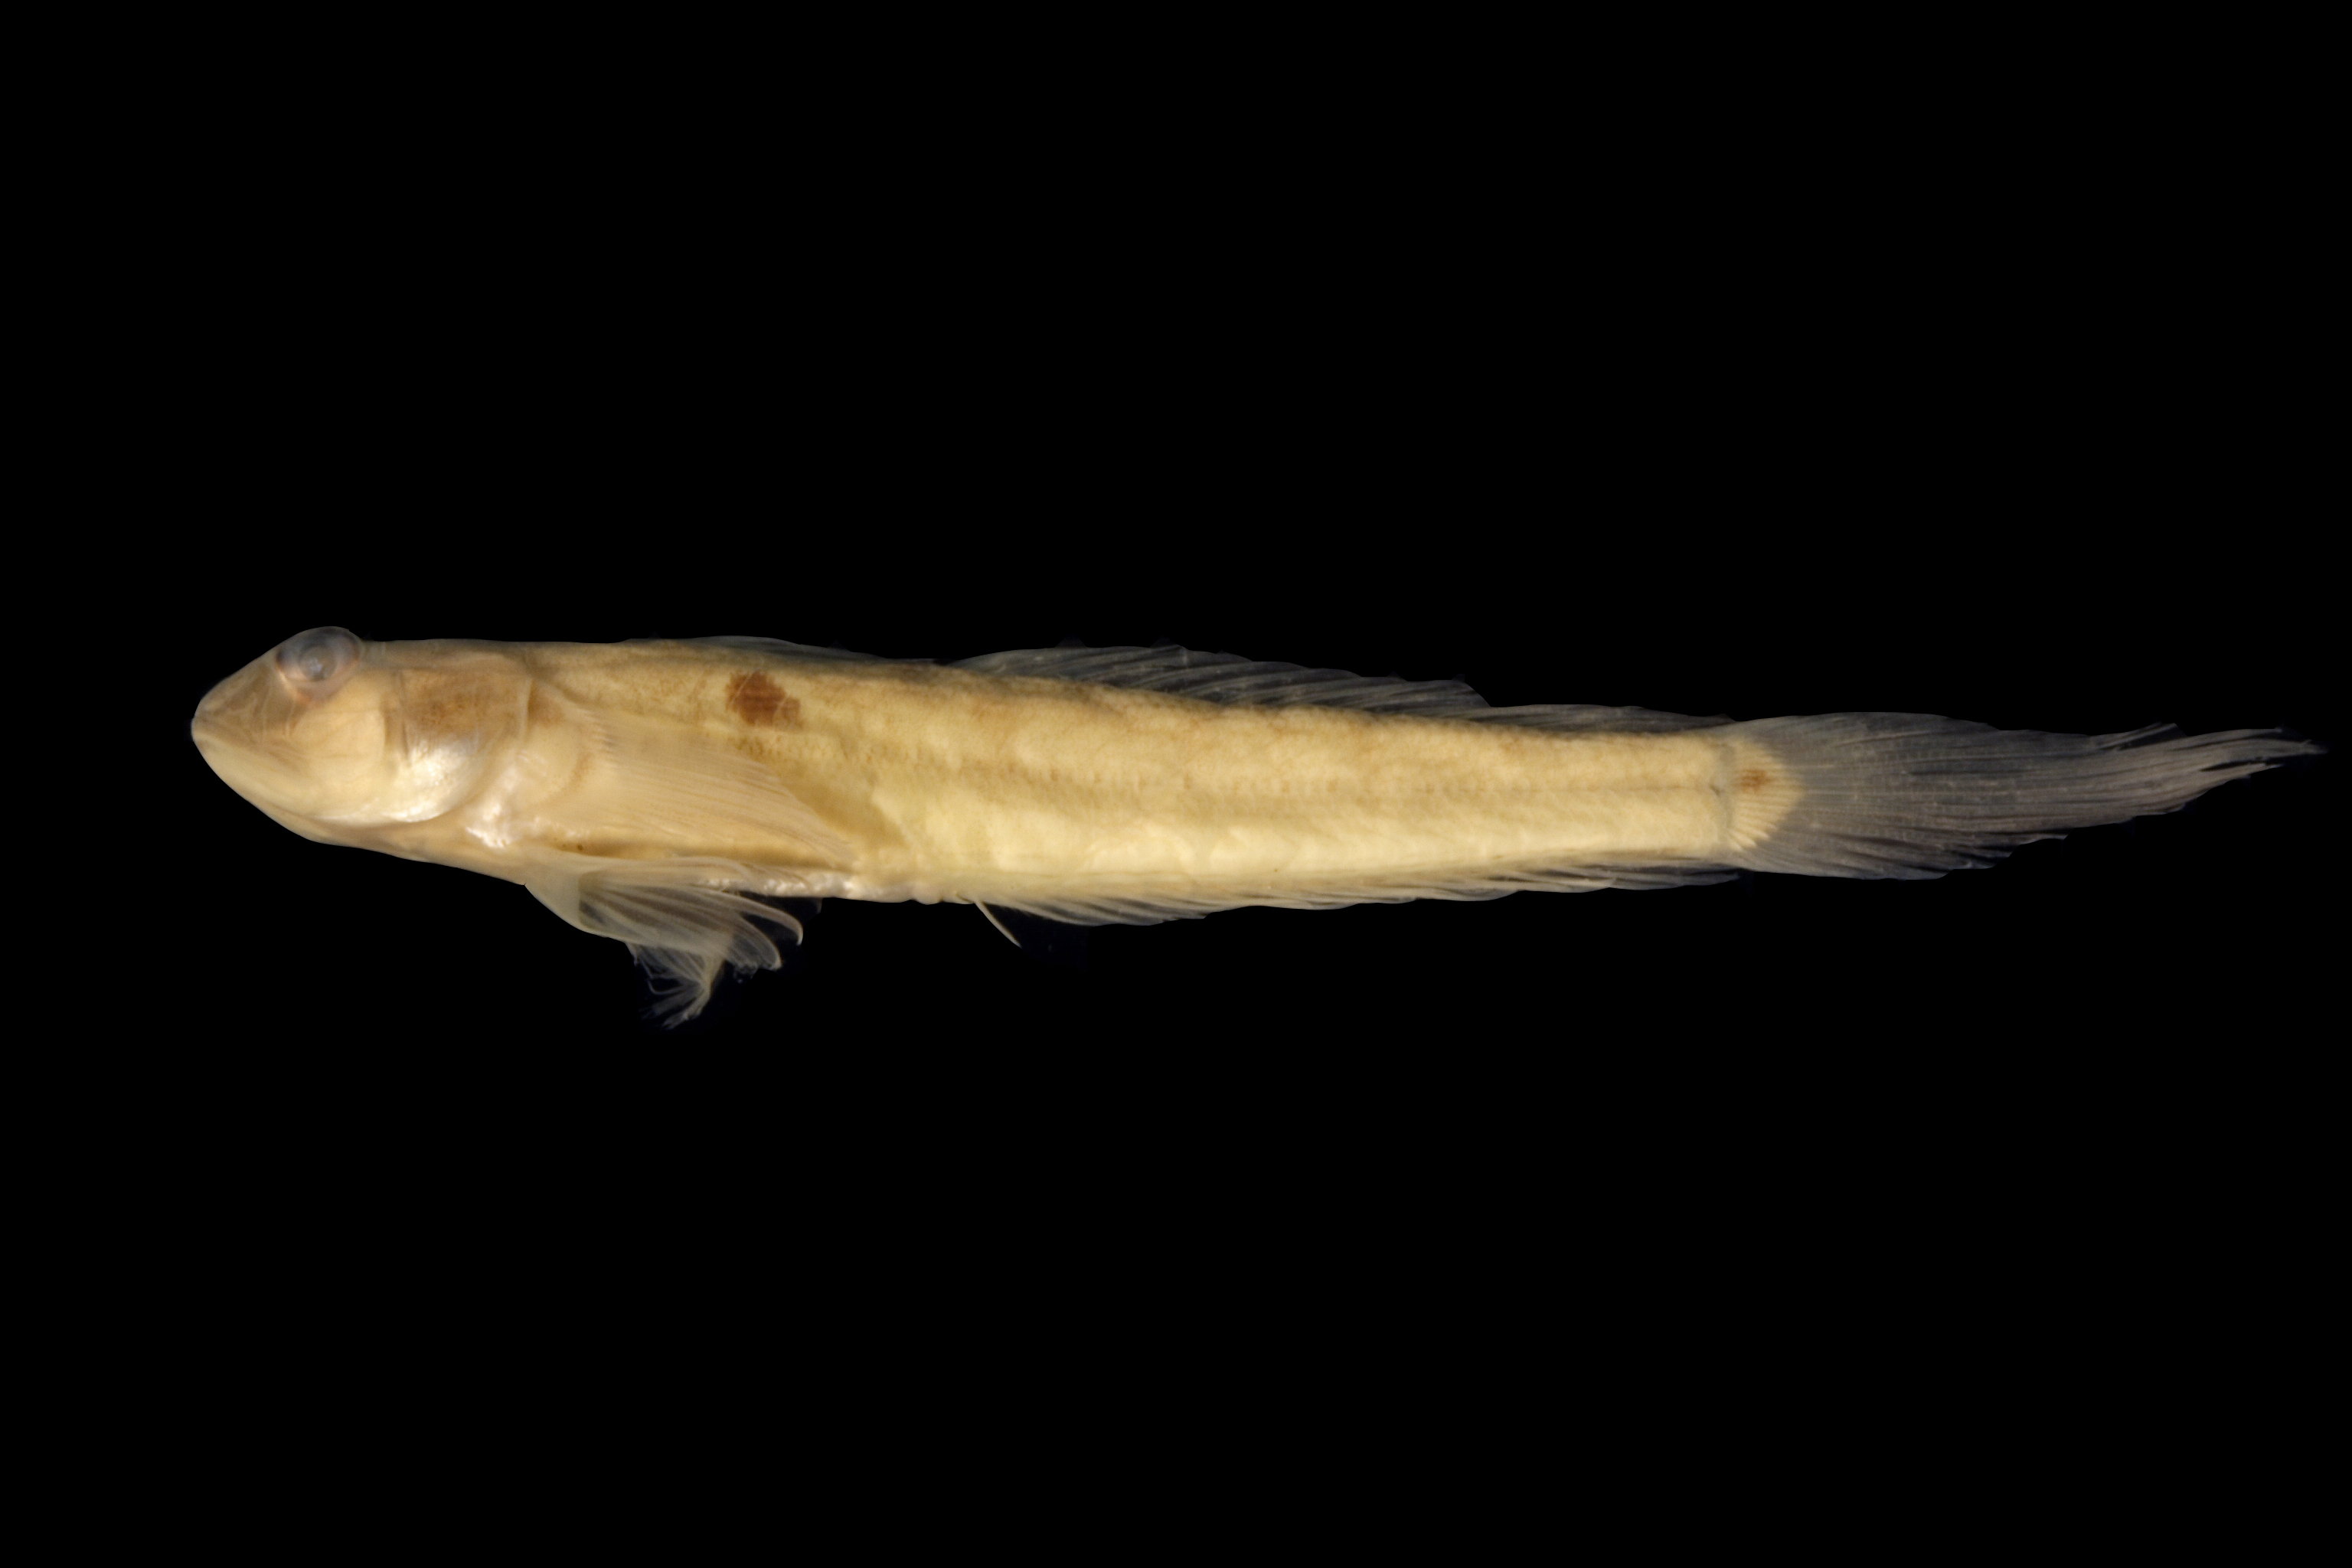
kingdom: Animalia
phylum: Chordata
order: Perciformes
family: Gobiidae
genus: Gobionellus
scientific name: Gobionellus oceanicus
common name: Highfin goby
